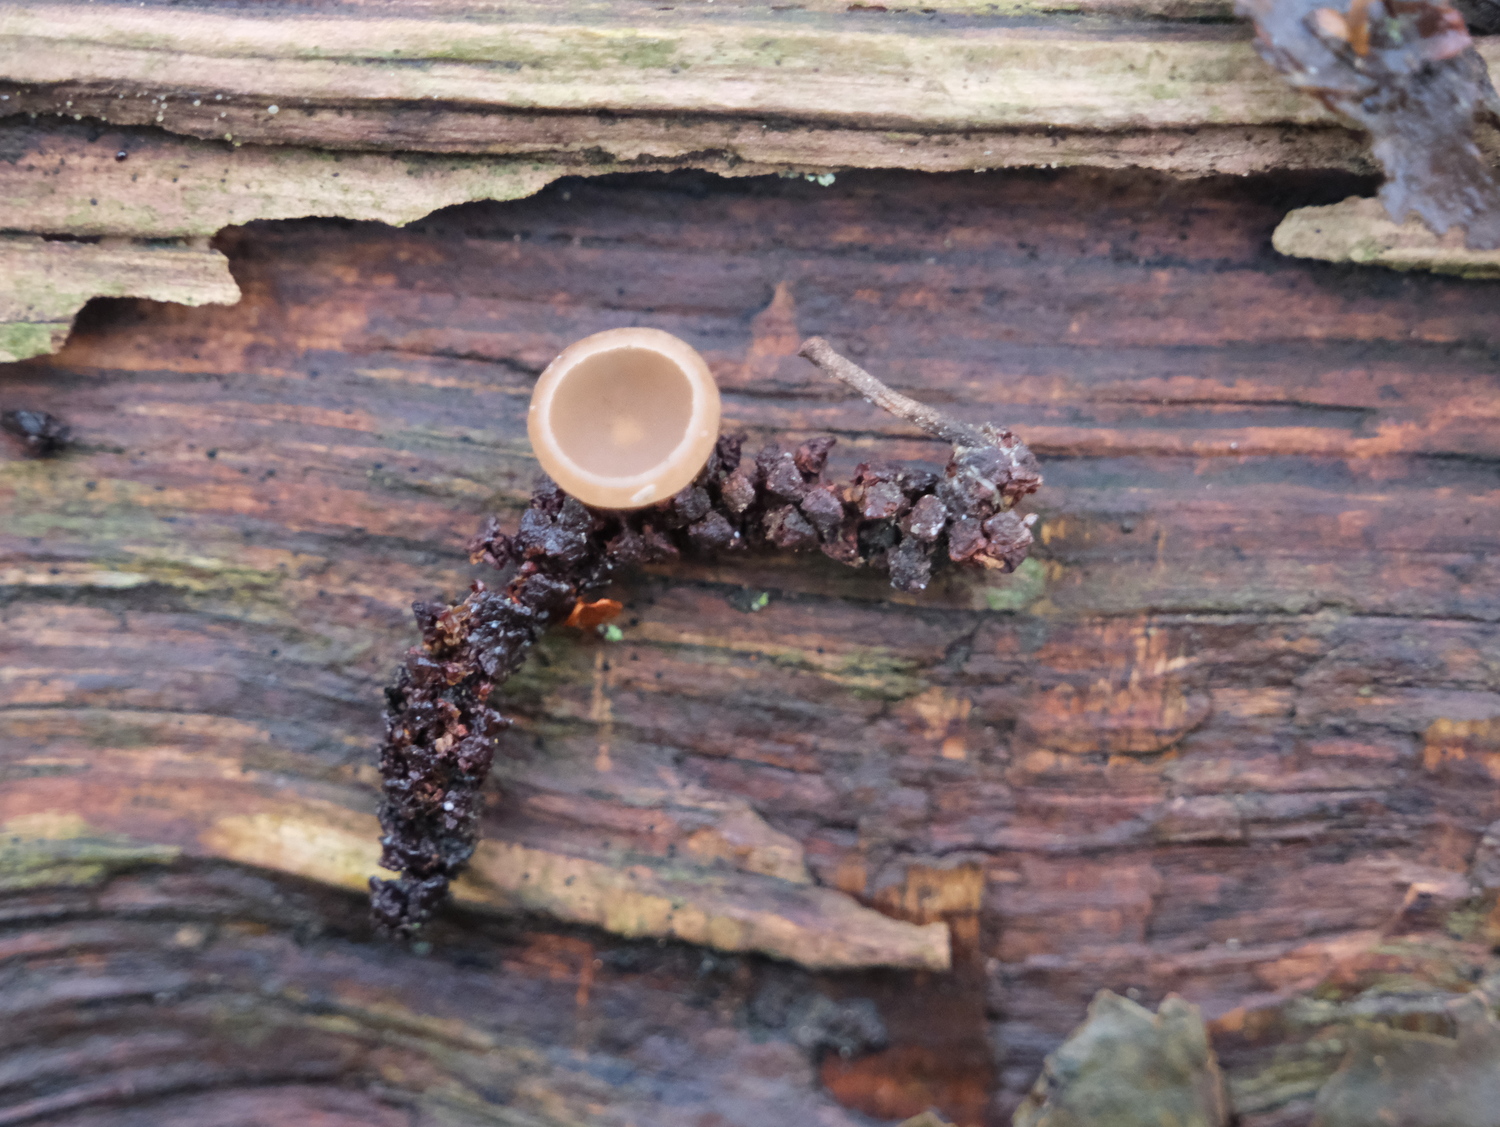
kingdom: Fungi
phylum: Ascomycota
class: Leotiomycetes
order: Helotiales
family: Sclerotiniaceae
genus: Ciboria
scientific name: Ciboria amentacea
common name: ellerakle-knoldskive
